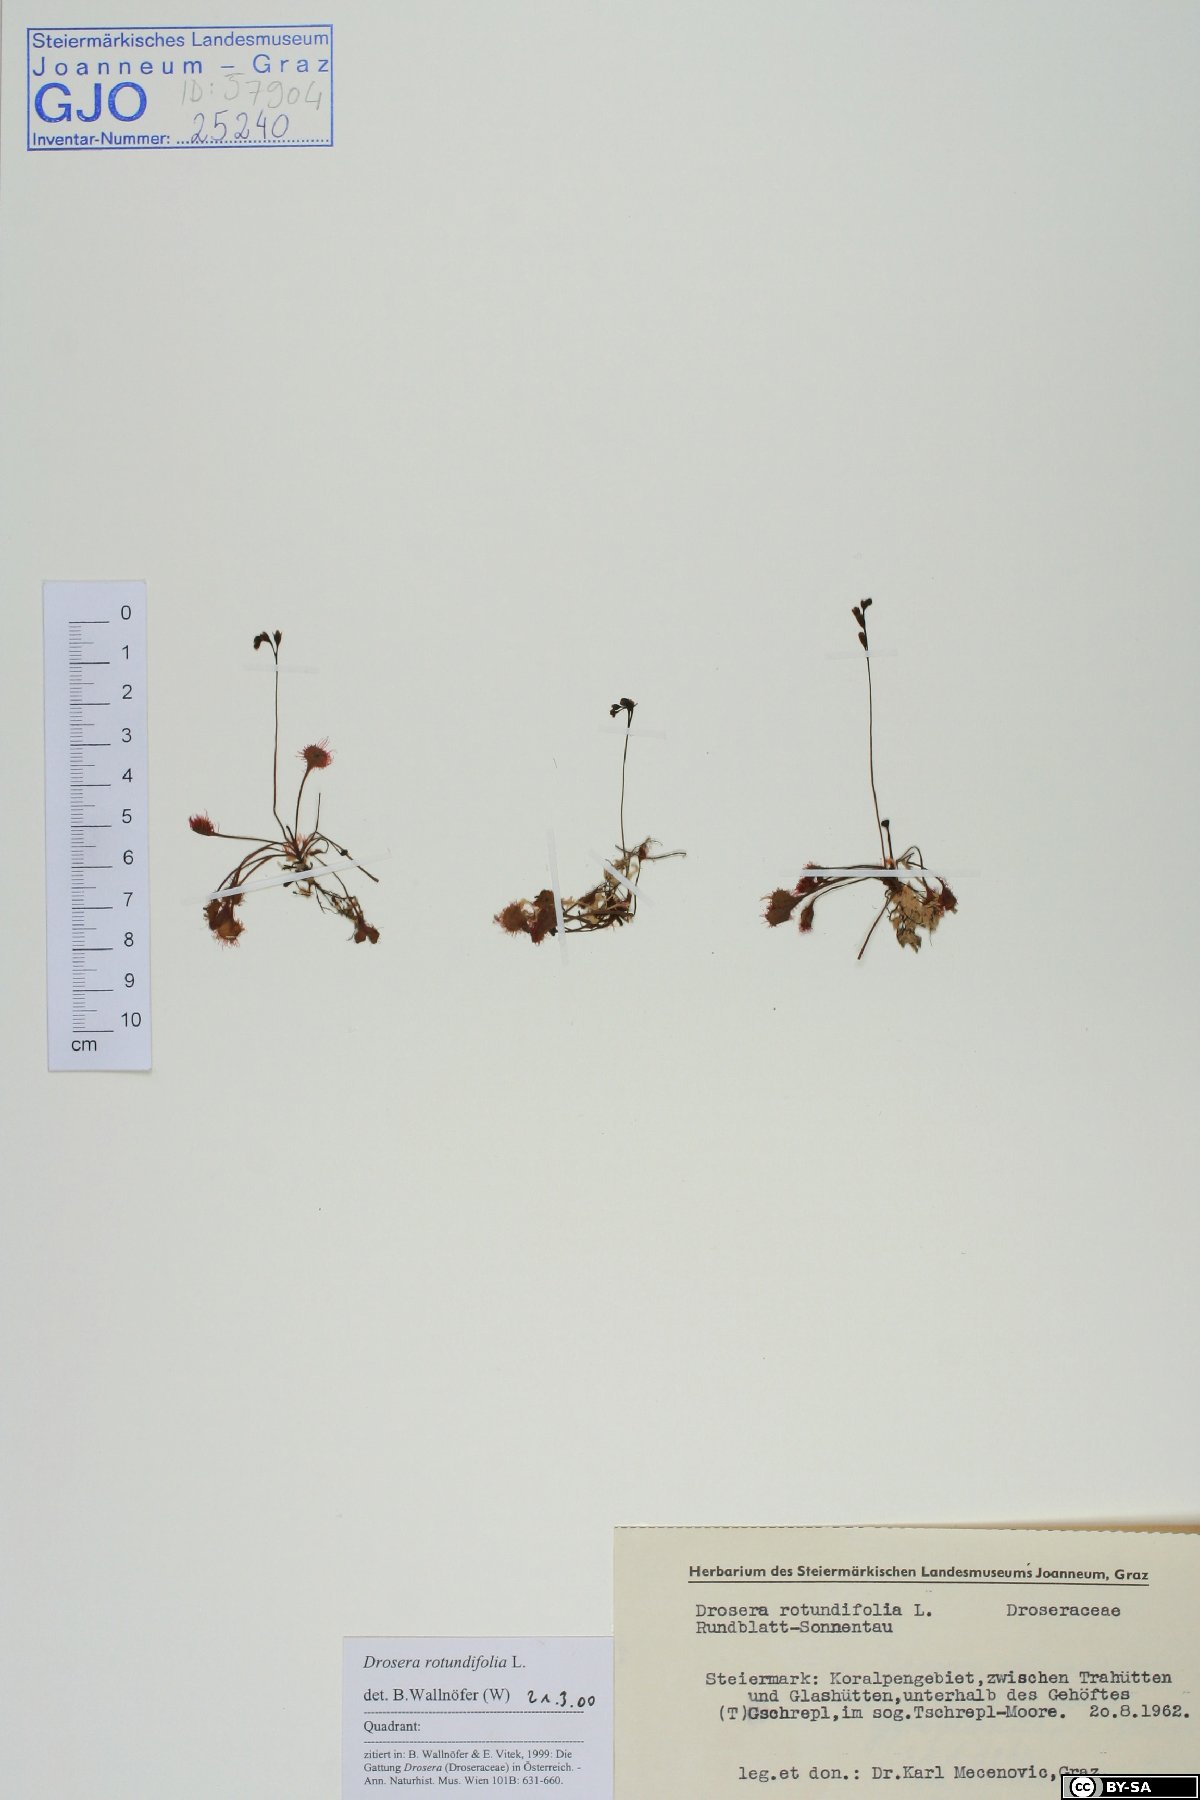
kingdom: Plantae
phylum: Tracheophyta
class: Magnoliopsida
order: Caryophyllales
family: Droseraceae
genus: Drosera
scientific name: Drosera rotundifolia
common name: Round-leaved sundew
